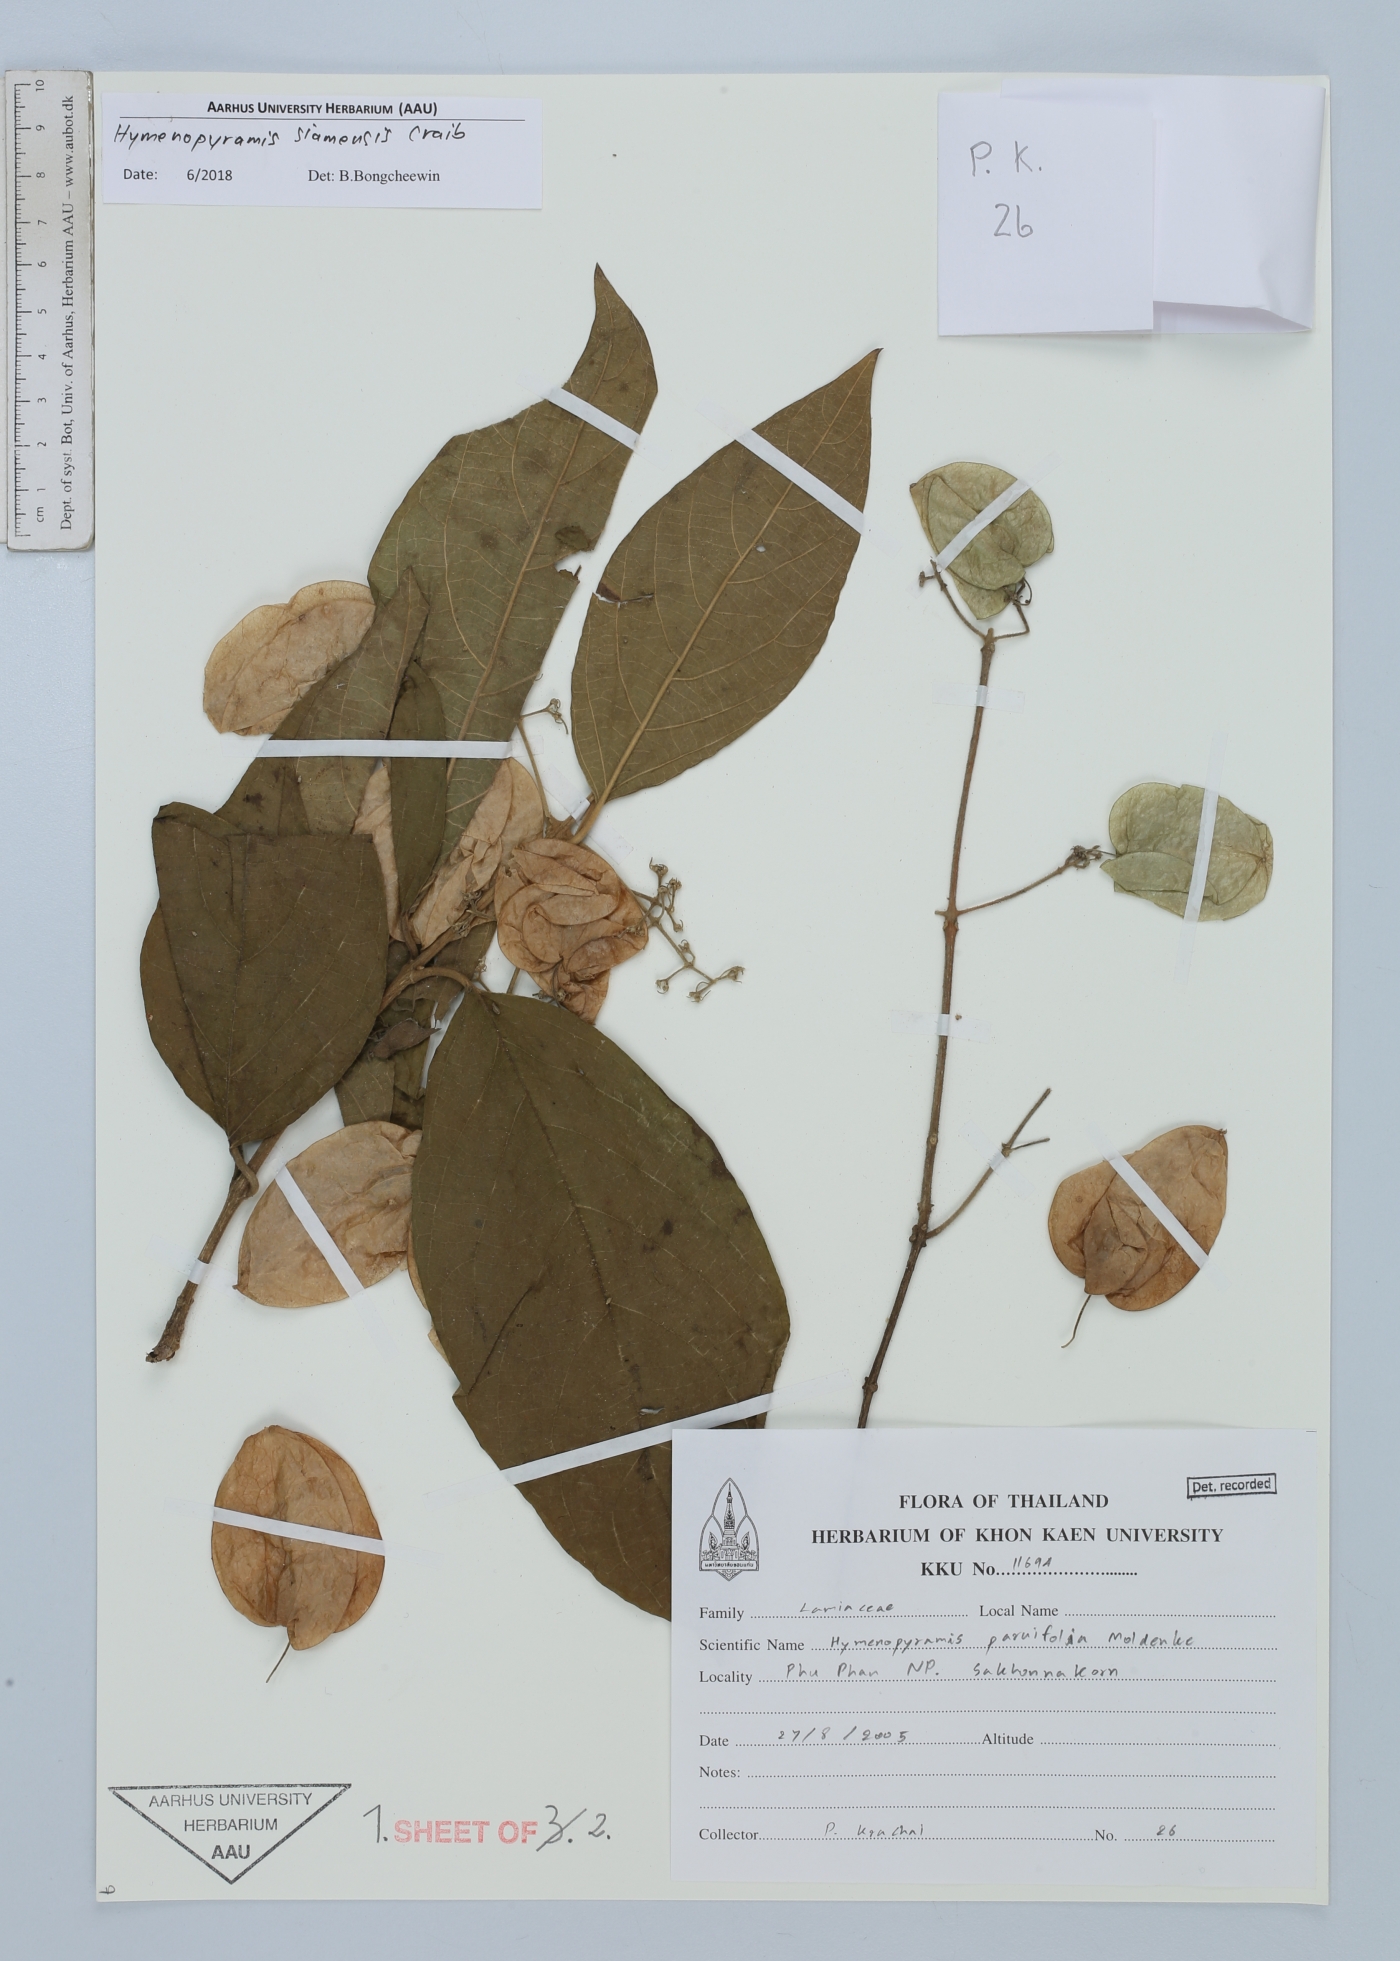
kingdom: Plantae
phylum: Tracheophyta
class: Magnoliopsida
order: Lamiales
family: Lamiaceae
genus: Hymenopyramis
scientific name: Hymenopyramis siamensis
